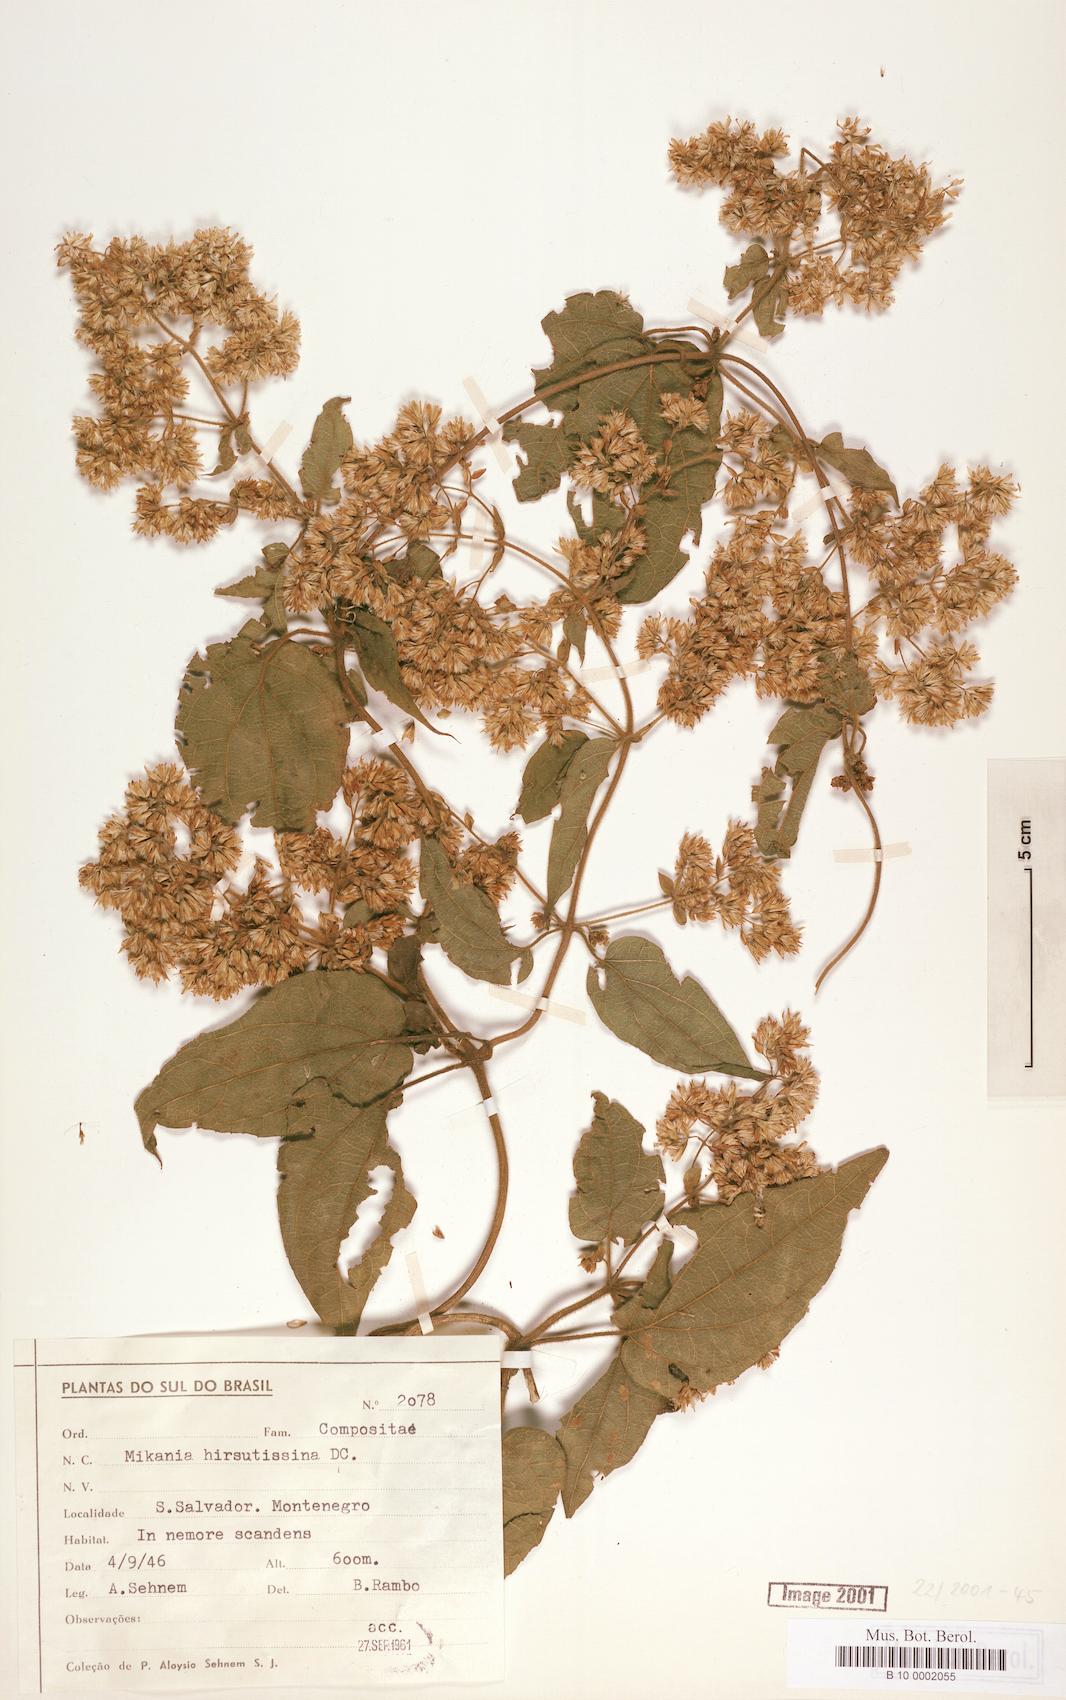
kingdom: Plantae
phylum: Tracheophyta
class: Magnoliopsida
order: Asterales
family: Asteraceae
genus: Mikania
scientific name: Mikania banisteriae
